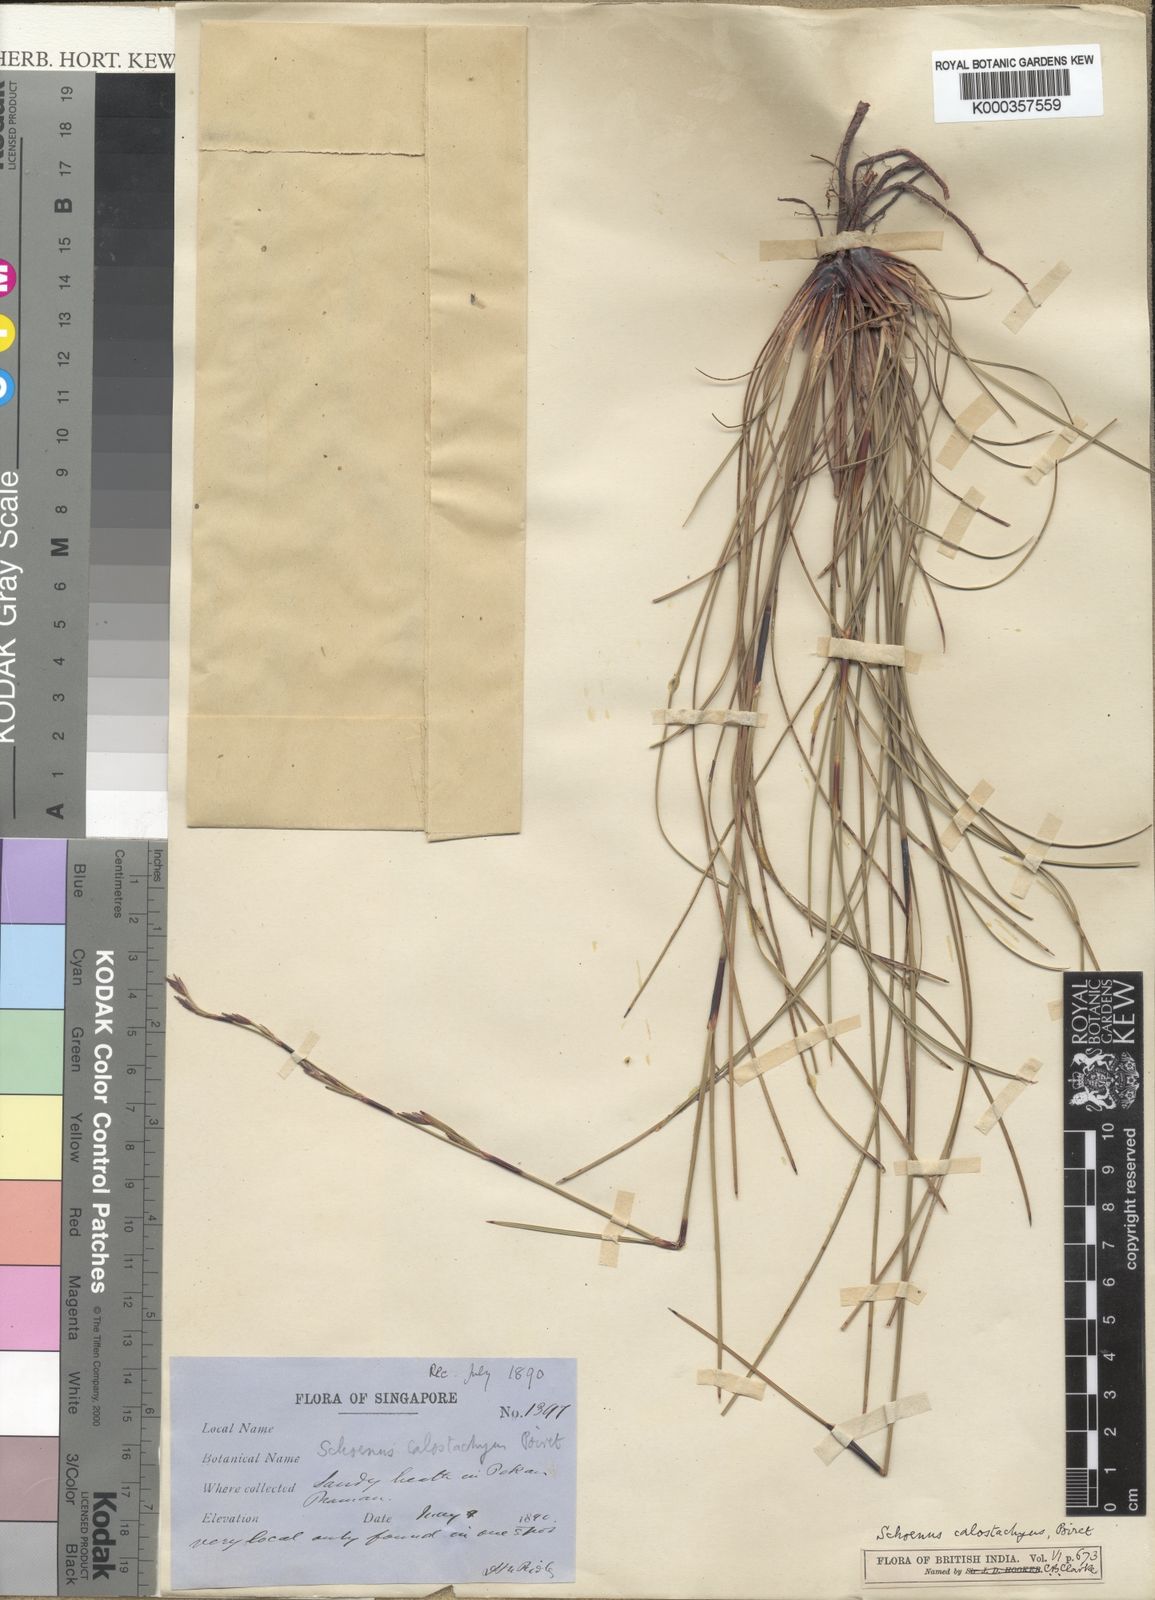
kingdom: Plantae
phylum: Tracheophyta
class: Liliopsida
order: Poales
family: Cyperaceae
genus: Schoenus
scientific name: Schoenus
